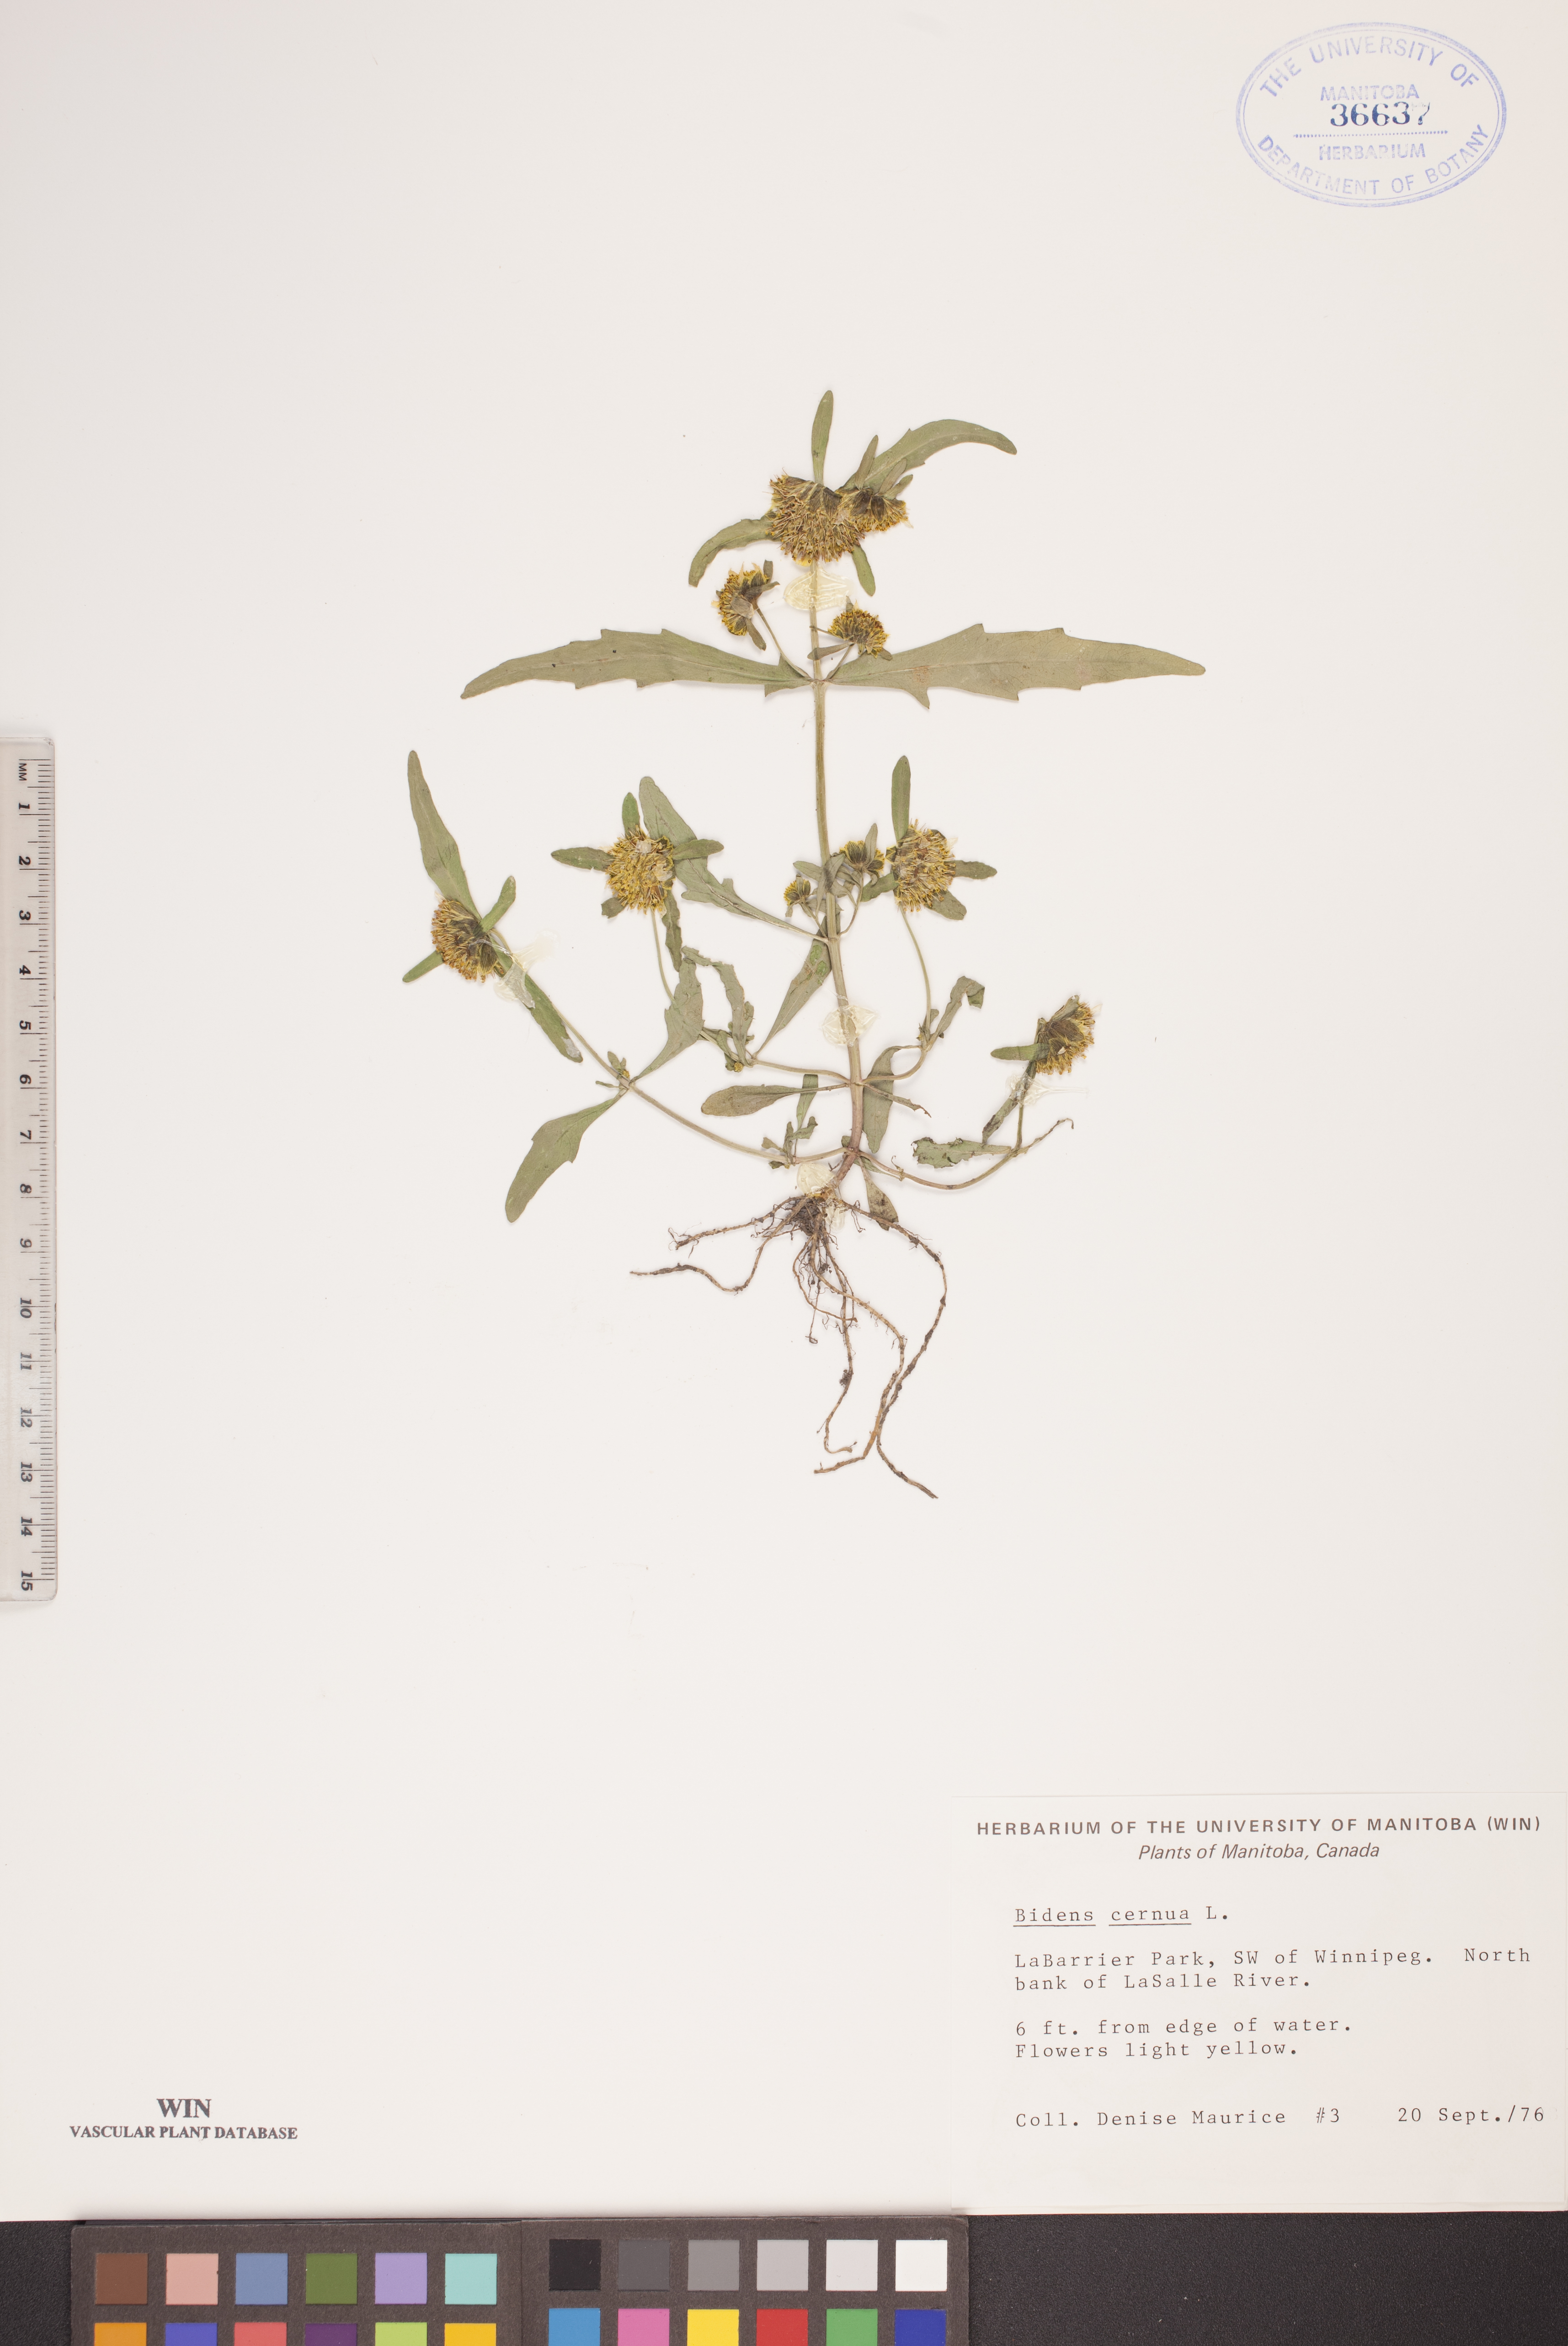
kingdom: Plantae
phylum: Tracheophyta
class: Magnoliopsida
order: Asterales
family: Asteraceae
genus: Bidens
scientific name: Bidens cernua
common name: Nodding bur-marigold
